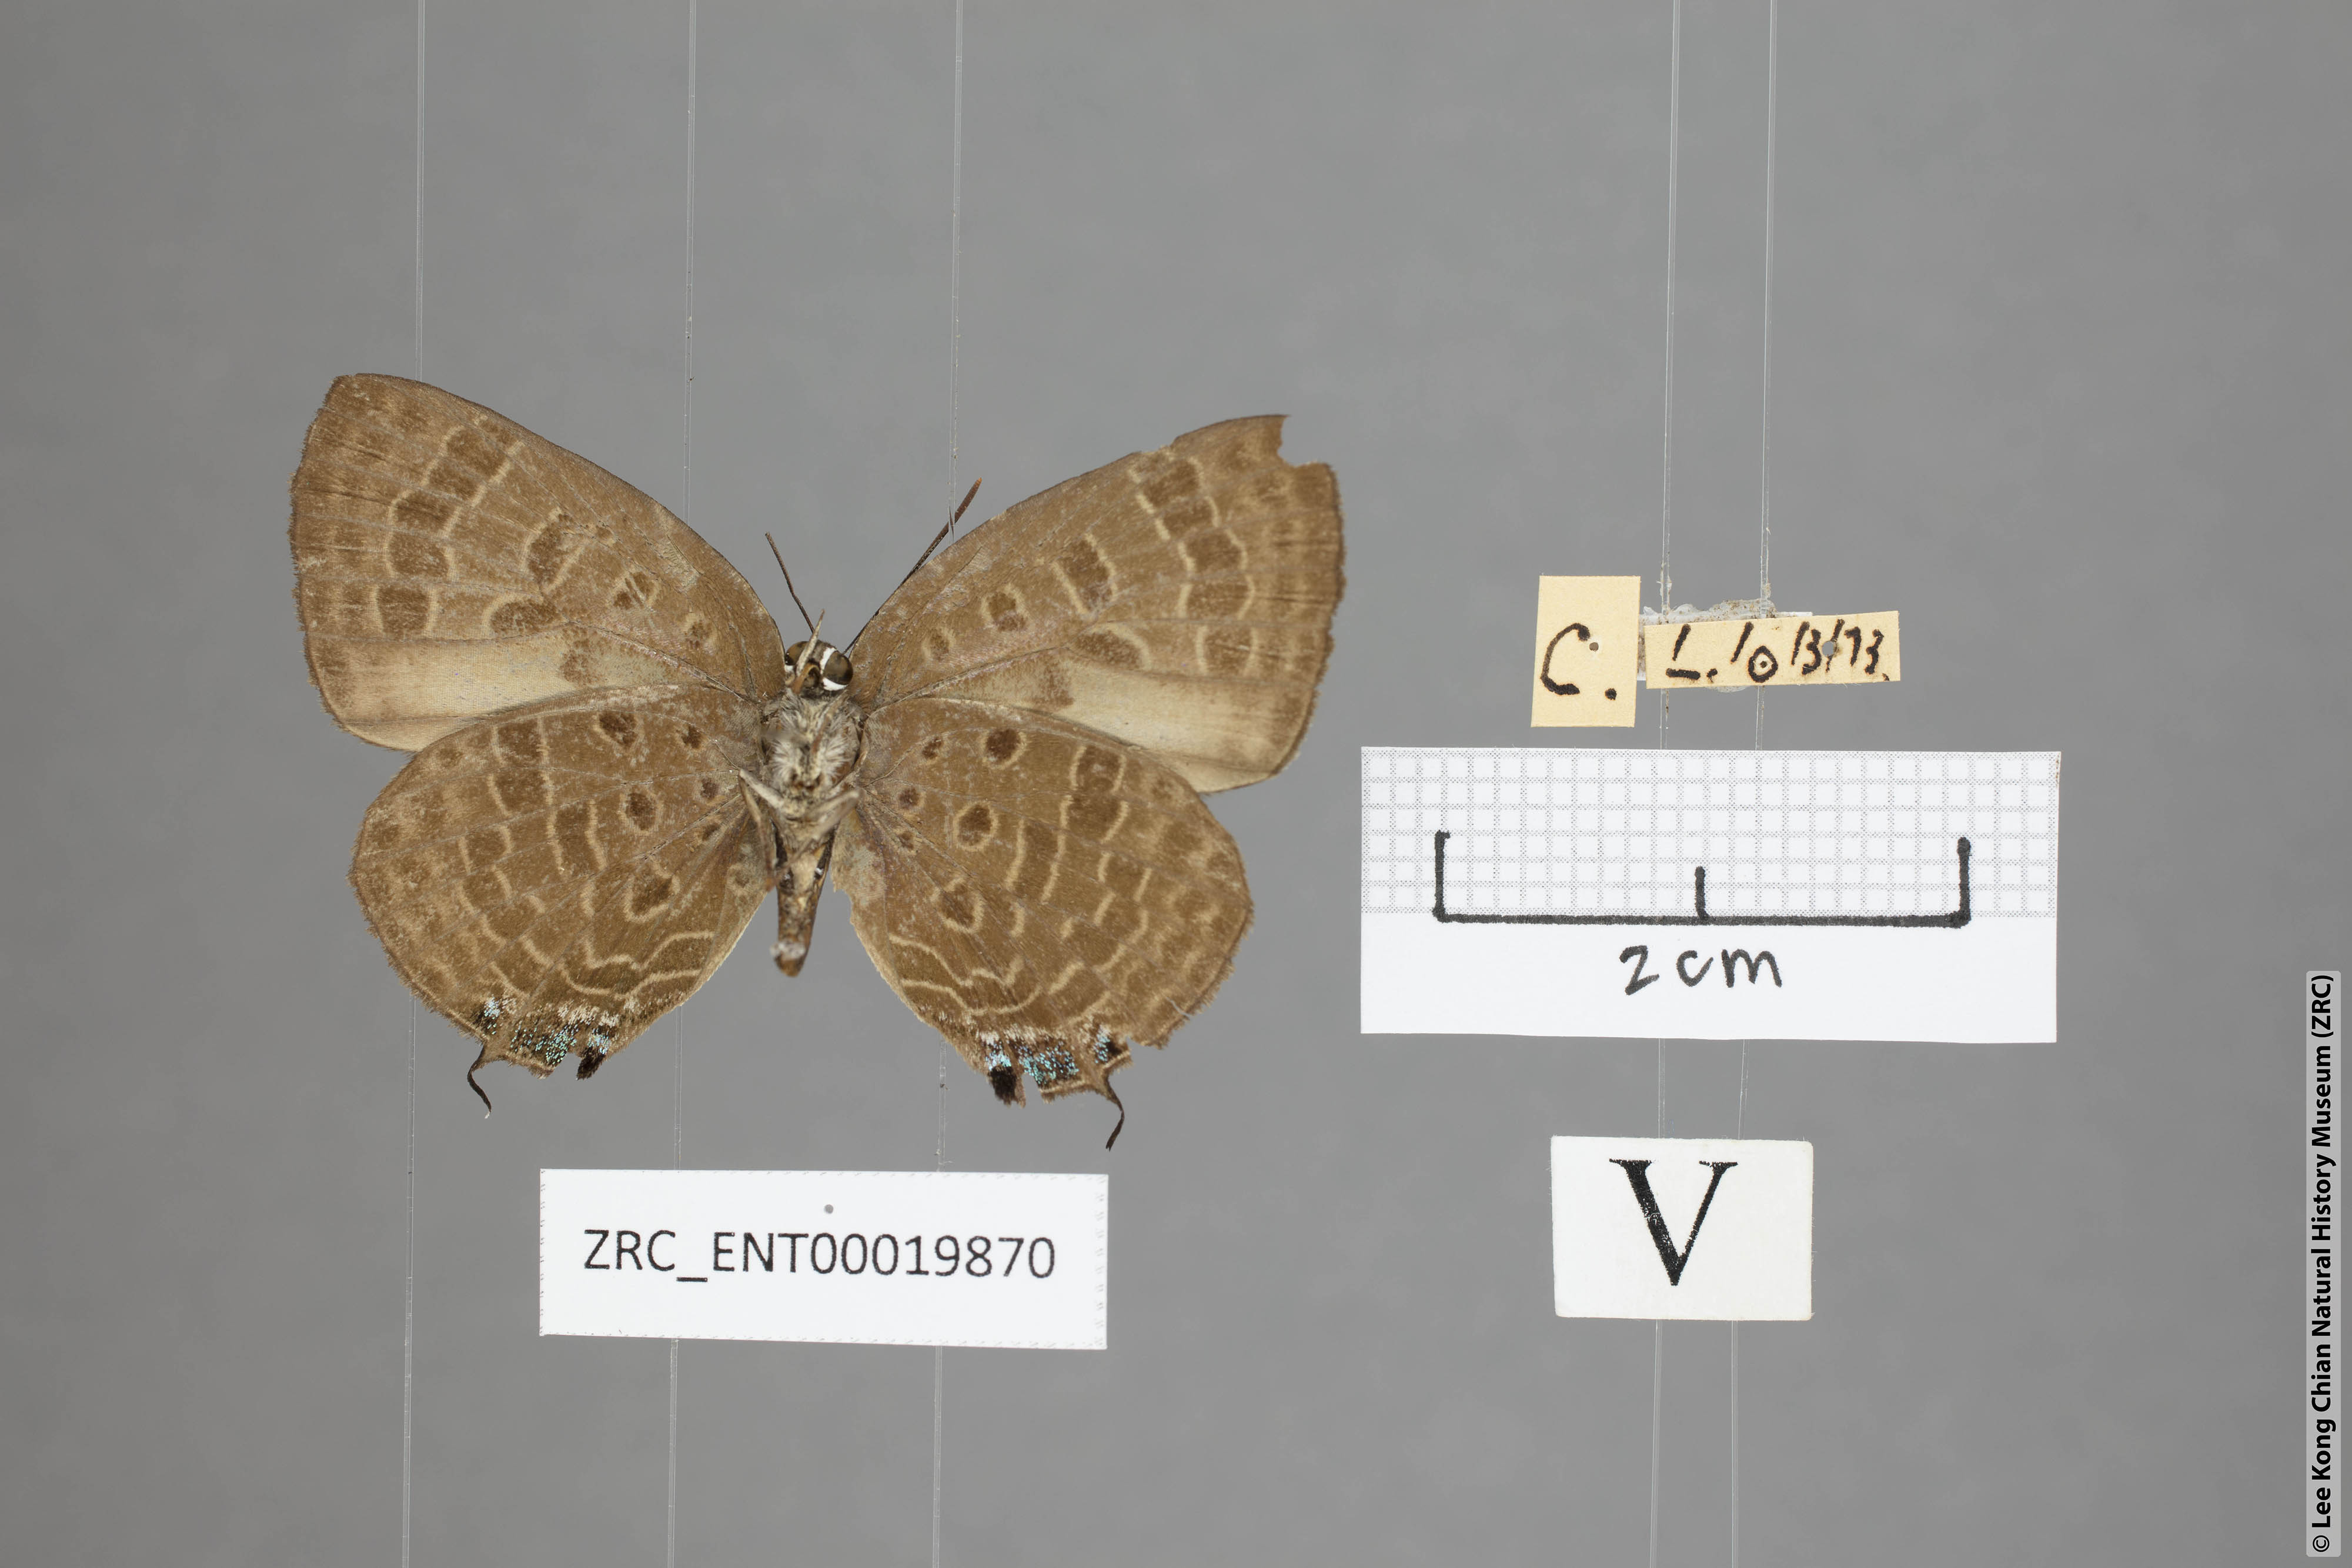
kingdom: Animalia
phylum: Arthropoda
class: Insecta
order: Lepidoptera
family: Lycaenidae
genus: Arhopala
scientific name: Arhopala sublustris
